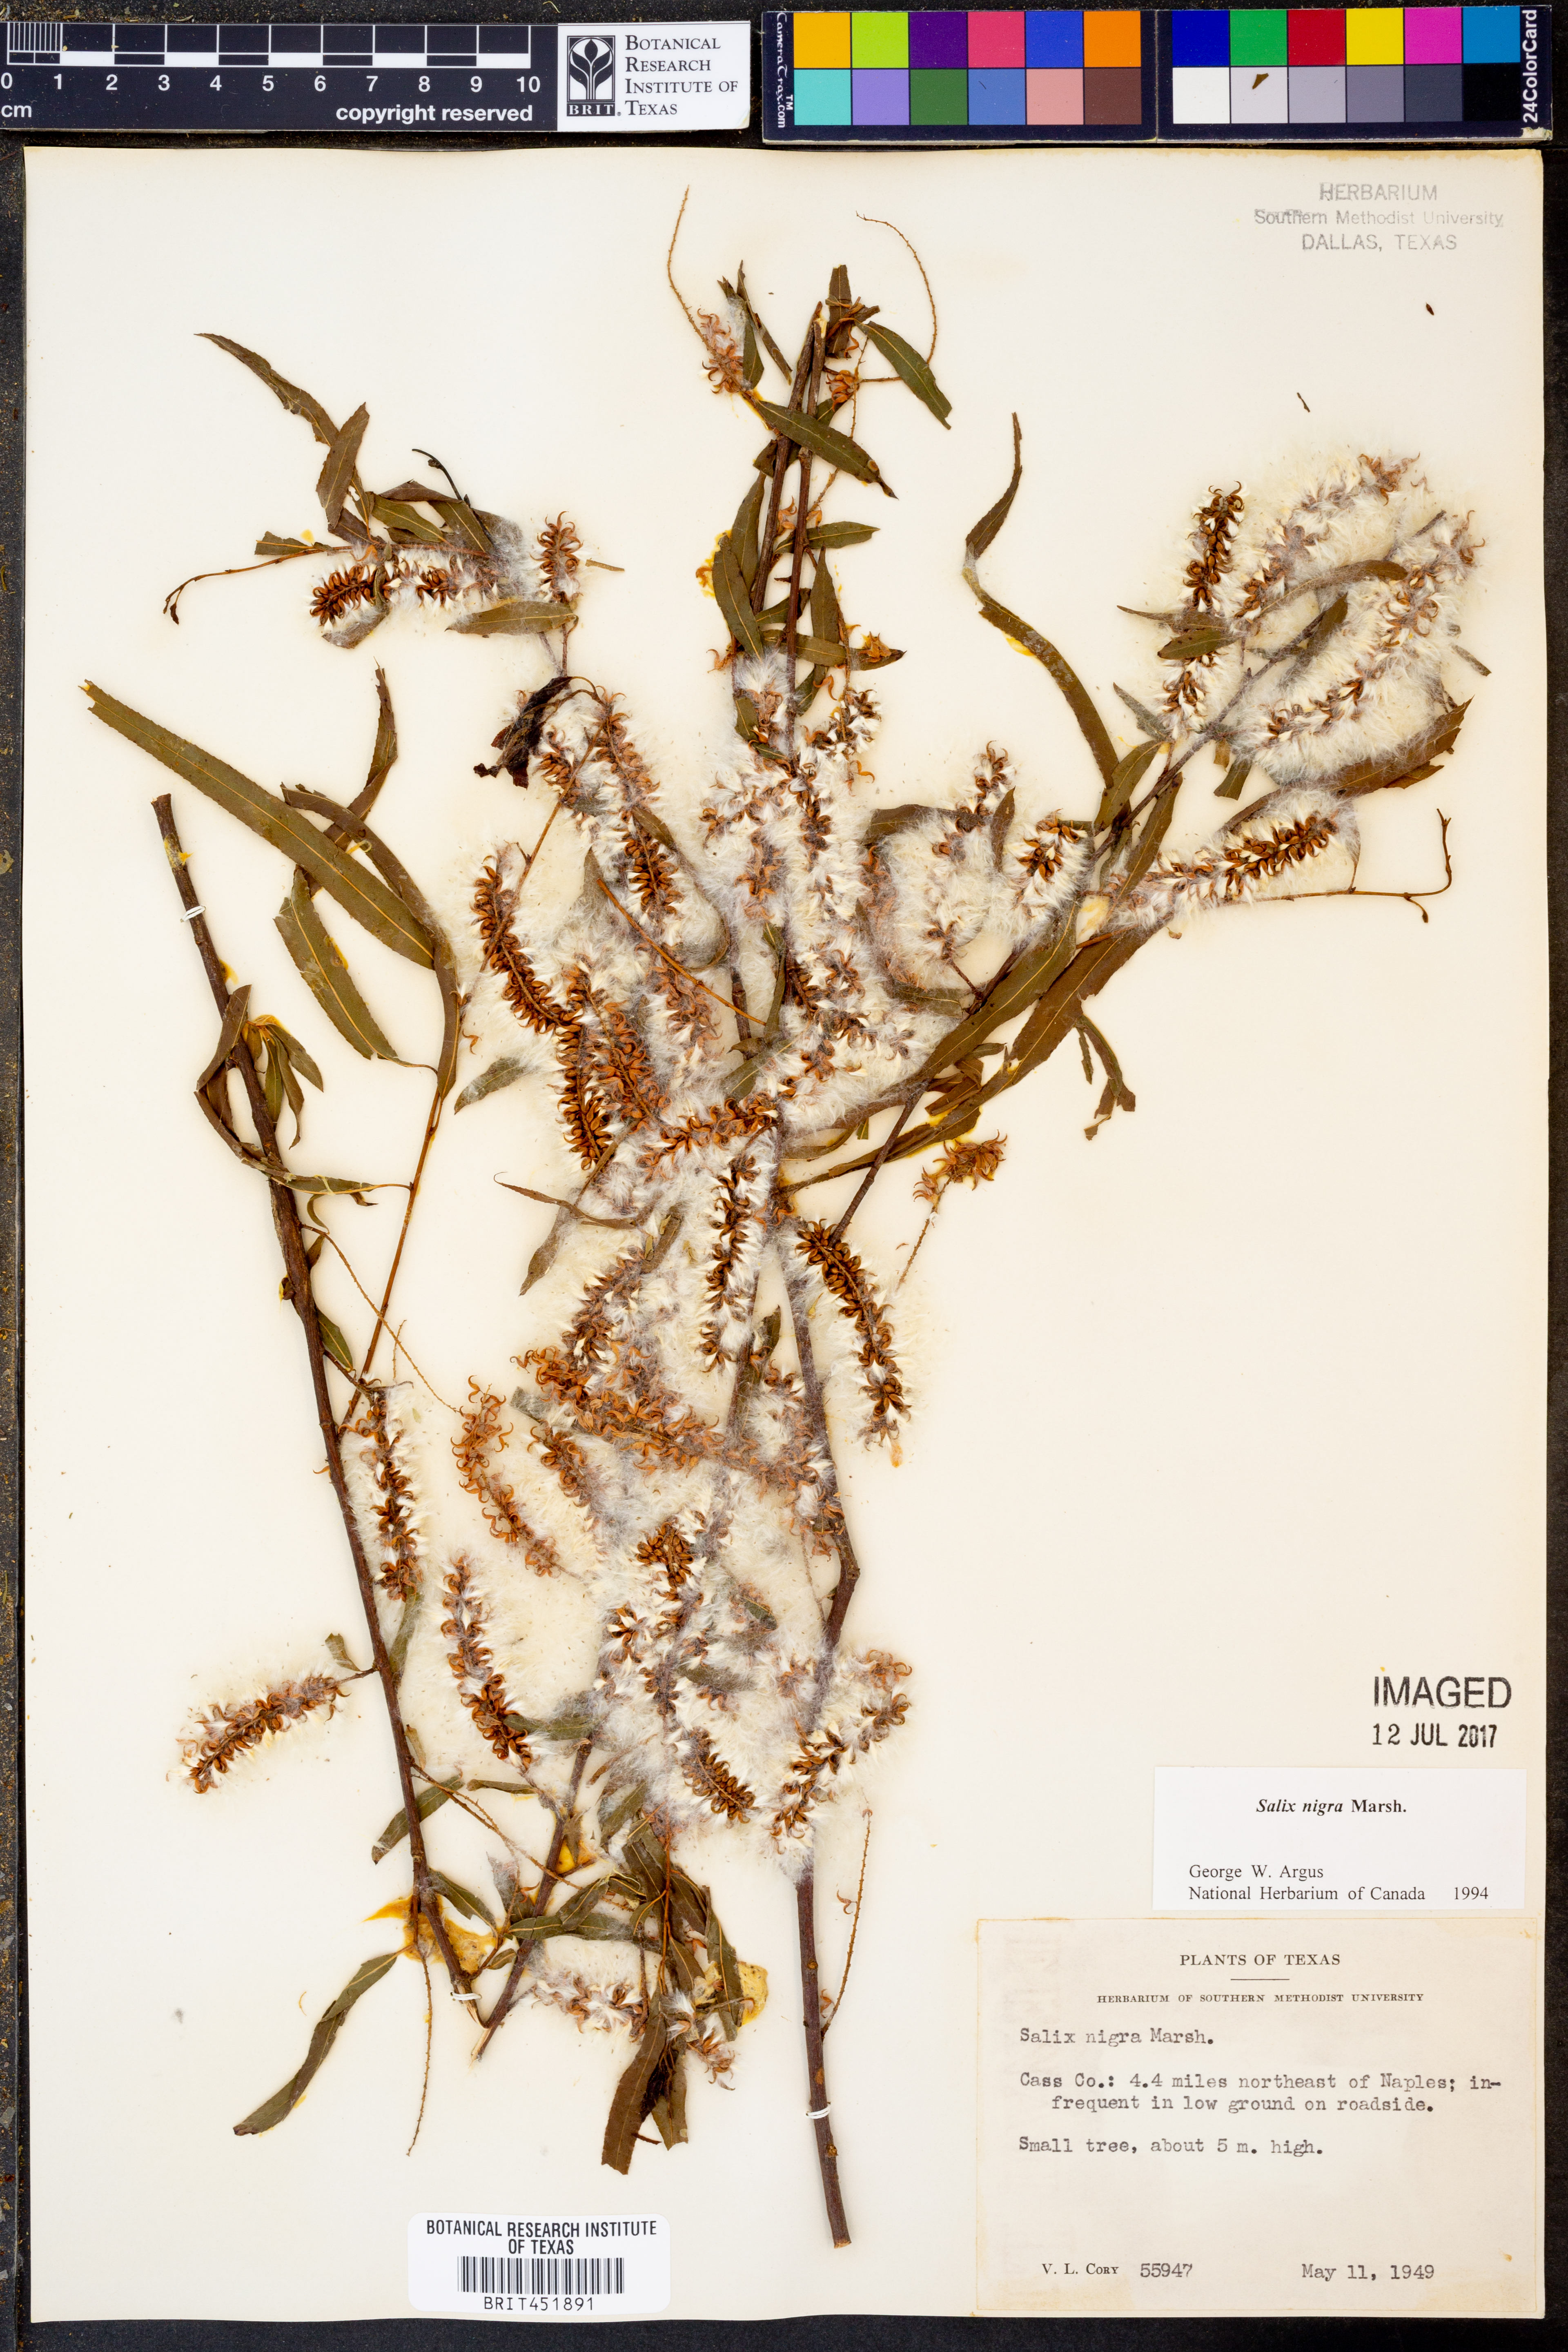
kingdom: Plantae
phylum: Tracheophyta
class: Magnoliopsida
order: Malpighiales
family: Salicaceae
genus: Salix
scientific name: Salix nigra
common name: Black willow
